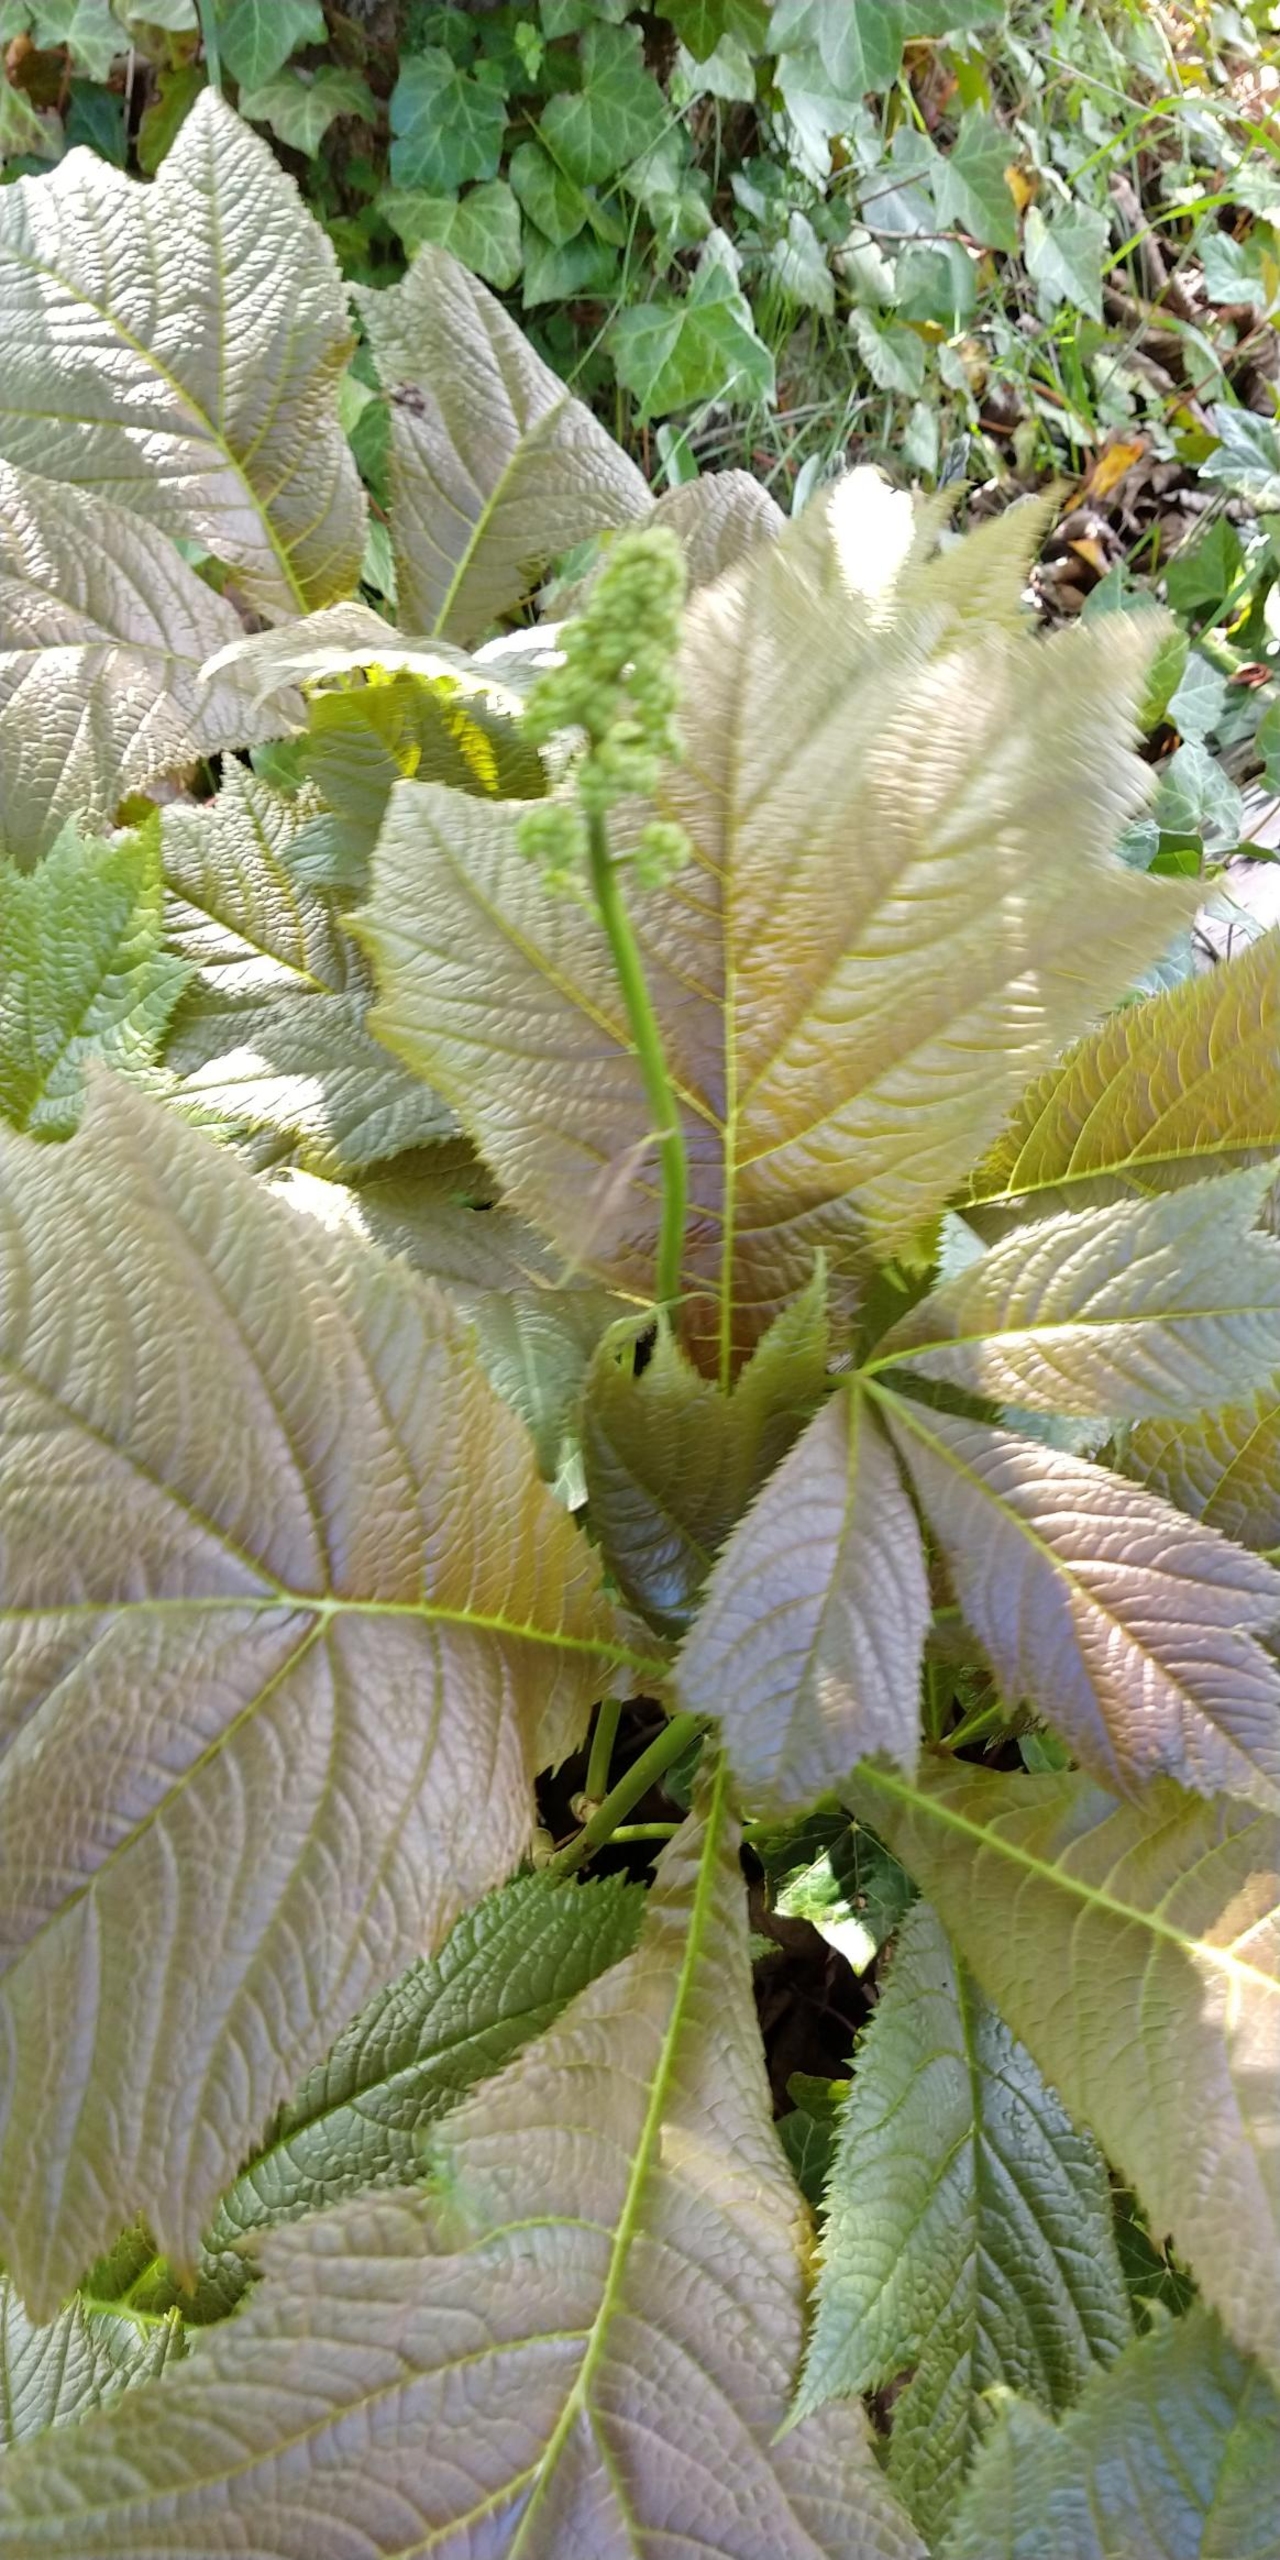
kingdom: Plantae
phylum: Tracheophyta
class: Magnoliopsida
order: Saxifragales
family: Saxifragaceae
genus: Rodgersia
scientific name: Rodgersia podophylla
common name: Stilket bronzeblad
